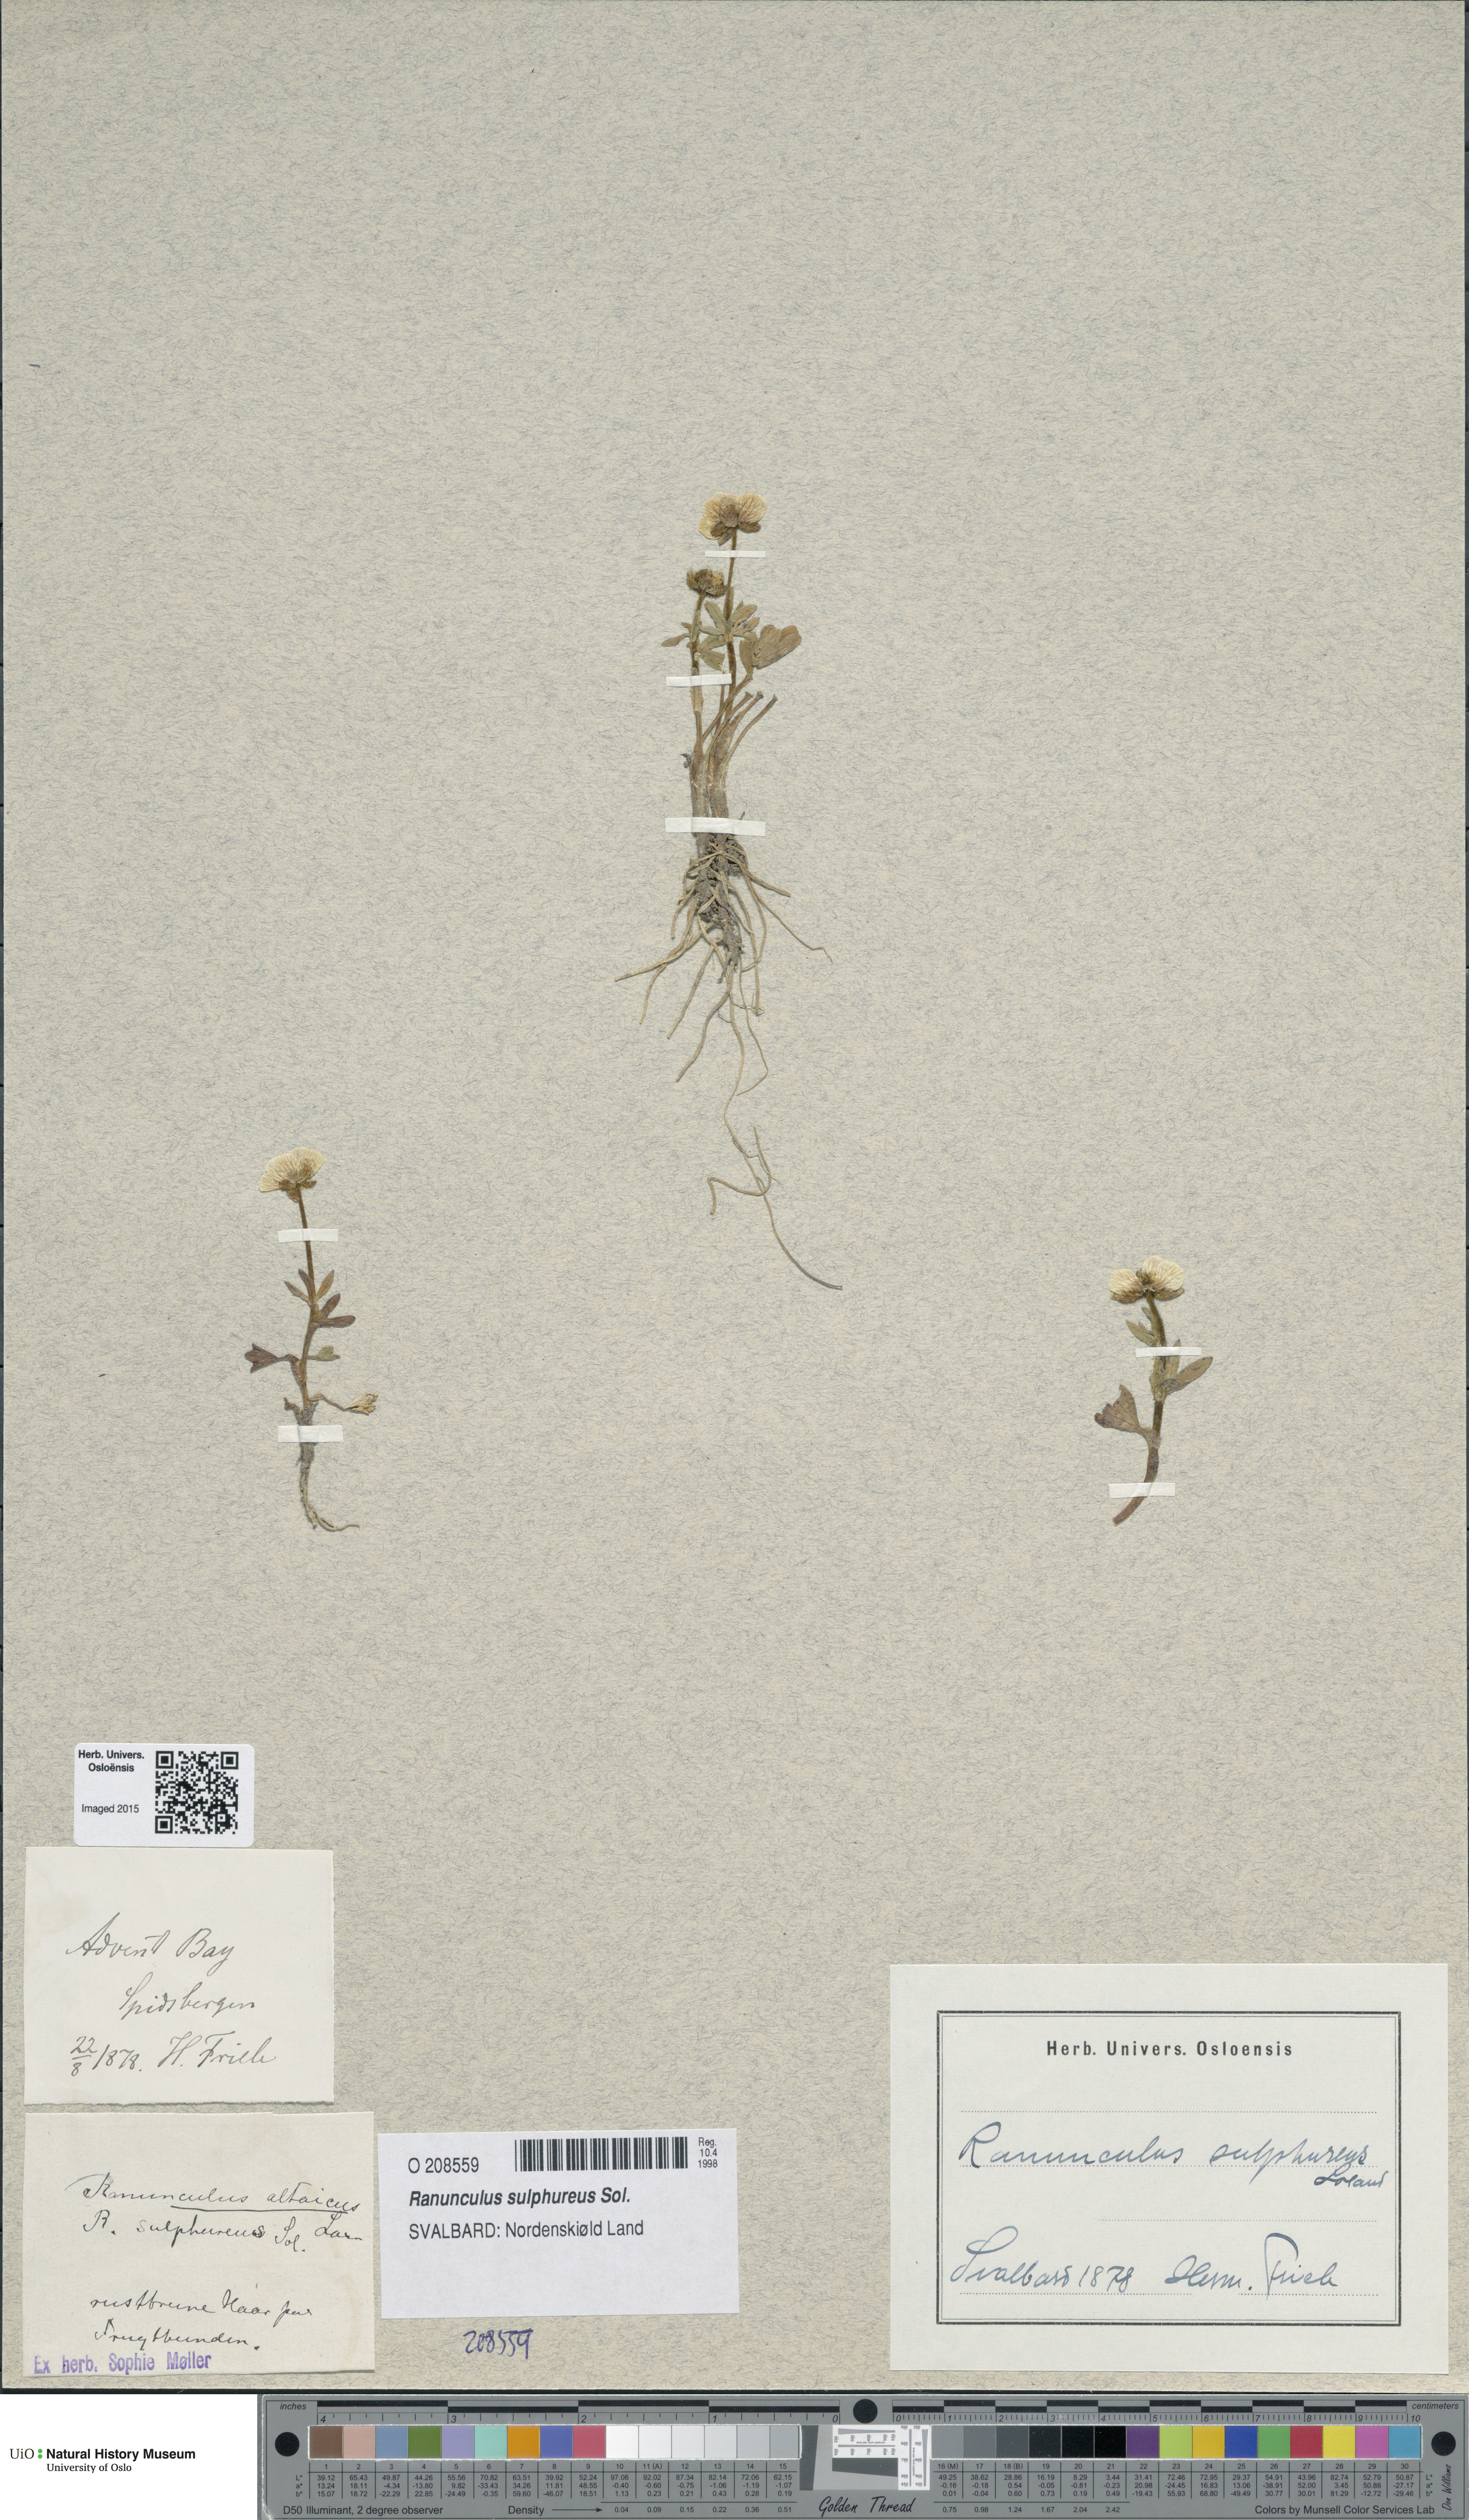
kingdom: Plantae
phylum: Tracheophyta
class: Magnoliopsida
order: Ranunculales
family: Ranunculaceae
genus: Ranunculus
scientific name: Ranunculus sulphureus
